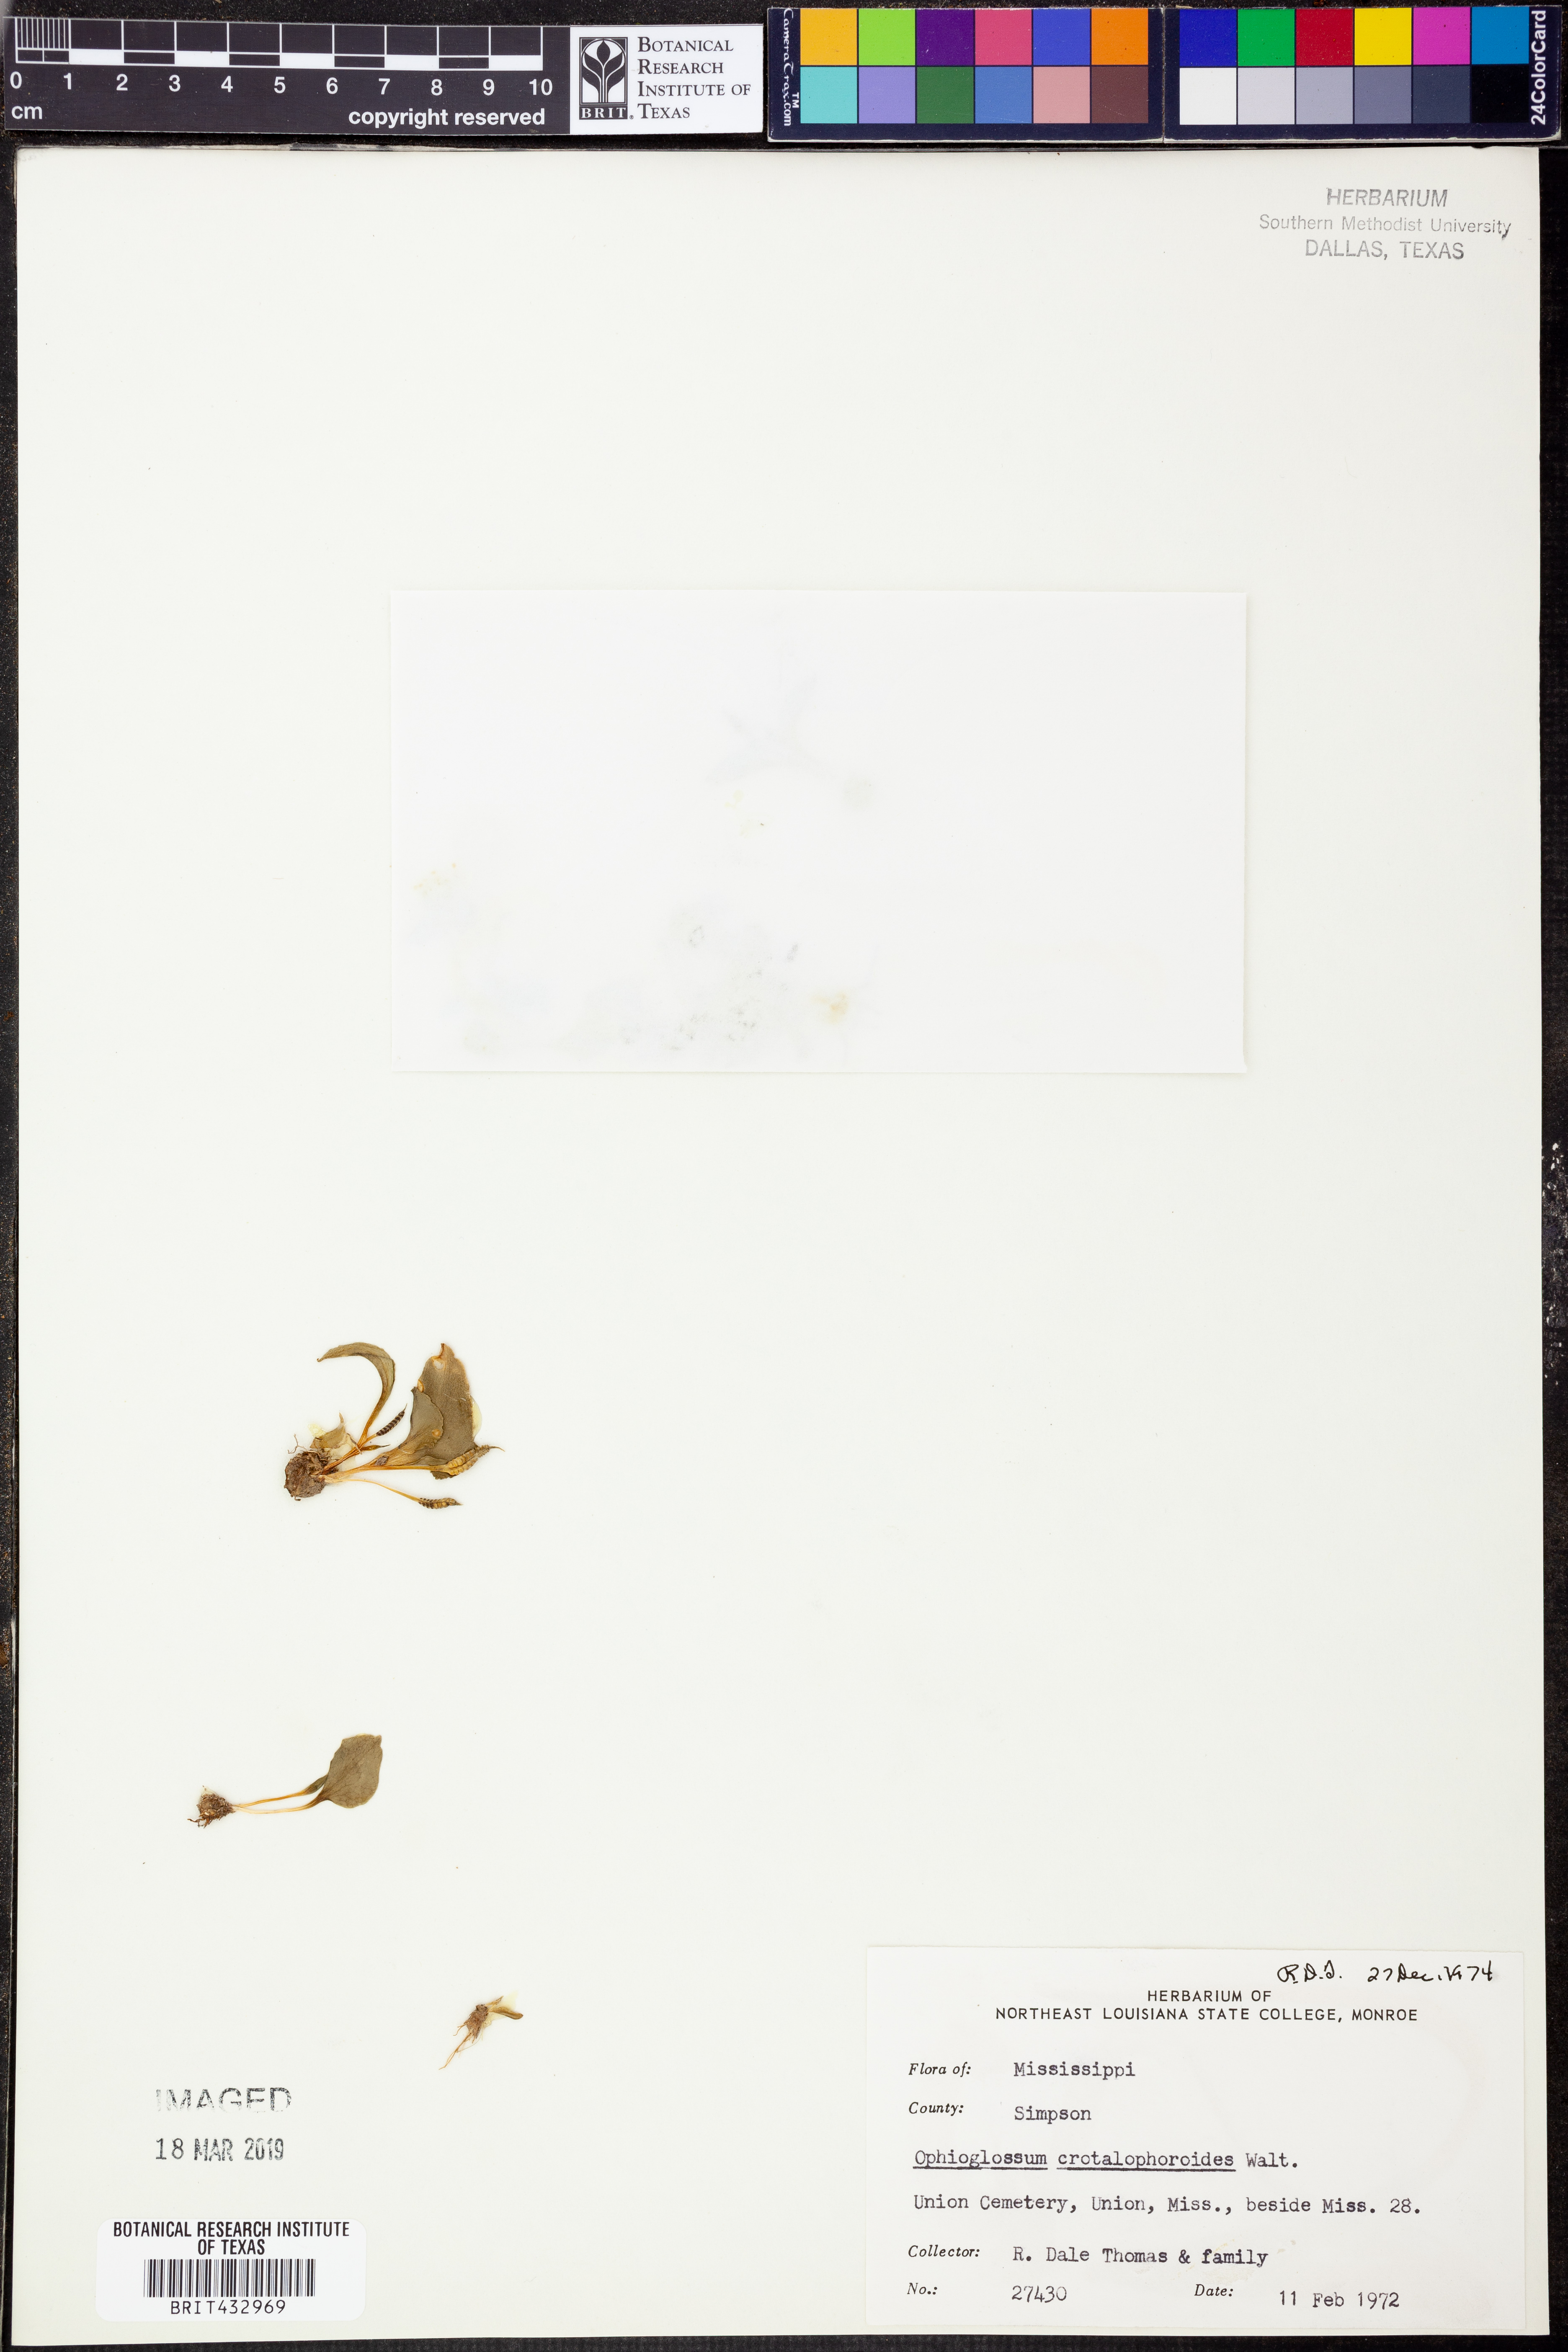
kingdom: Plantae
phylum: Tracheophyta
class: Polypodiopsida
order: Ophioglossales
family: Ophioglossaceae
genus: Ophioglossum
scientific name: Ophioglossum crotalophoroides
